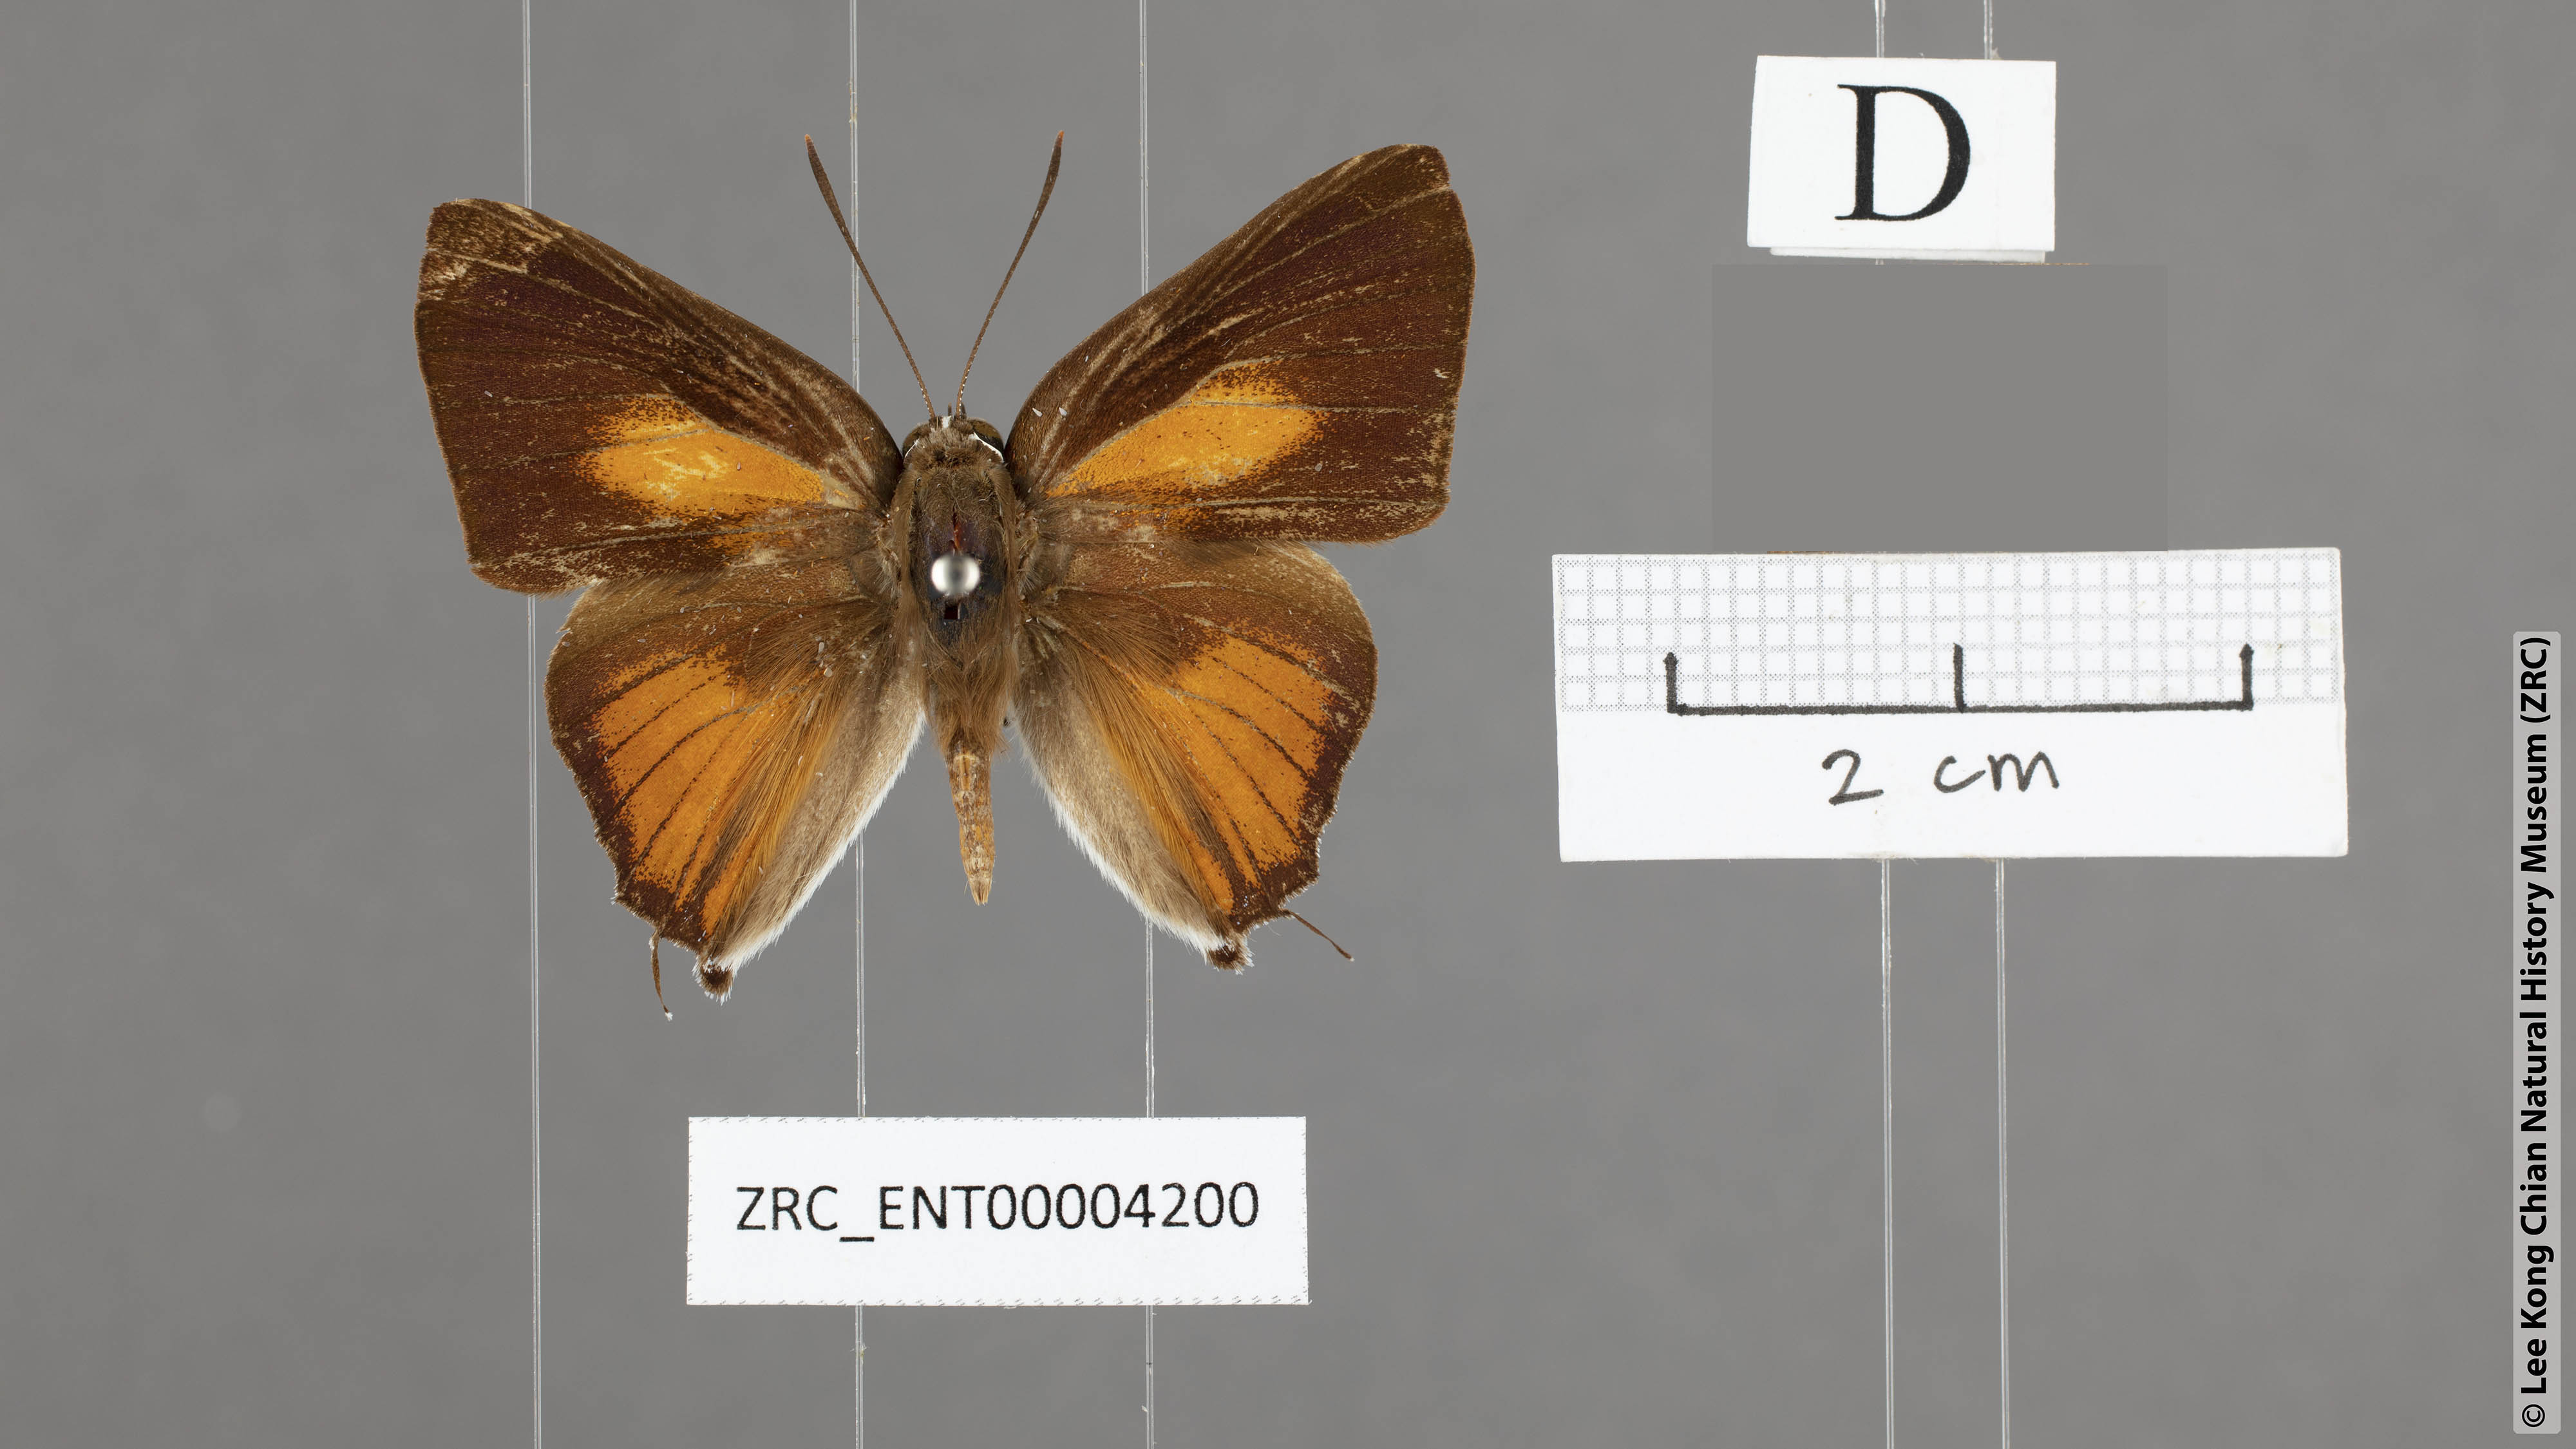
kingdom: Animalia
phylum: Arthropoda
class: Insecta
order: Lepidoptera
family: Lycaenidae
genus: Deudorix
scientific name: Deudorix
